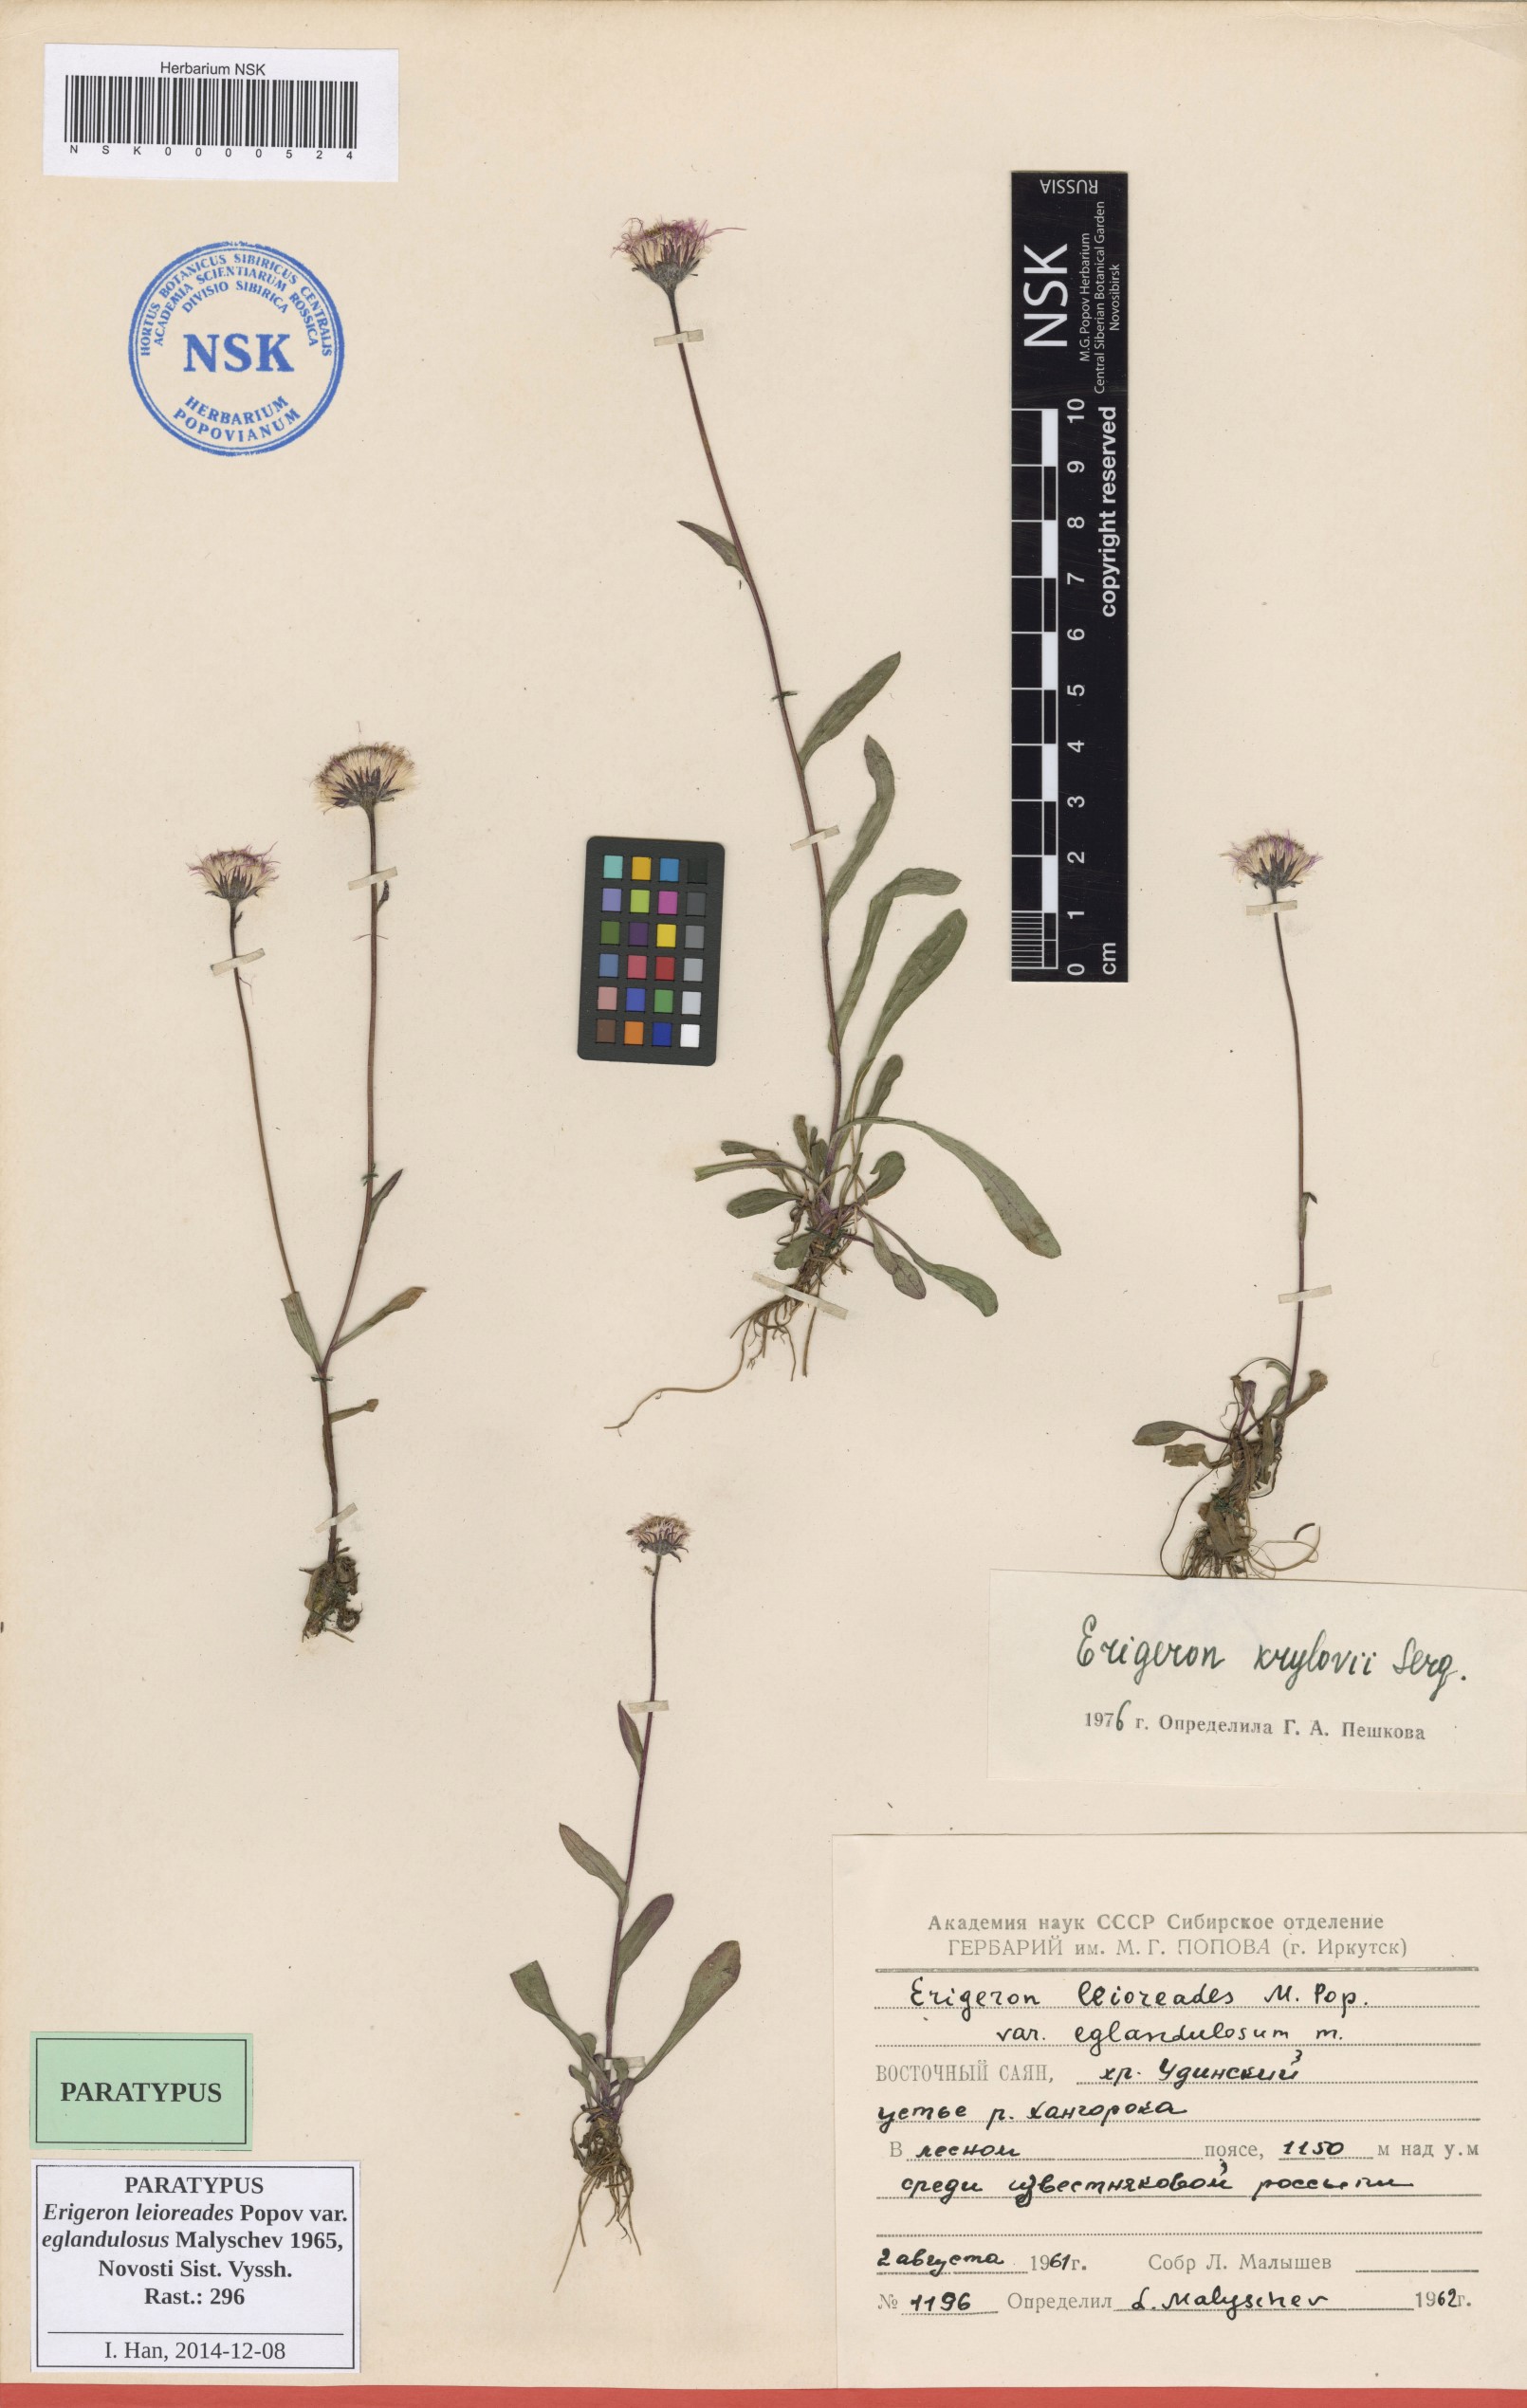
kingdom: Plantae
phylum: Tracheophyta
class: Magnoliopsida
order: Asterales
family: Asteraceae
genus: Erigeron
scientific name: Erigeron leioreades
